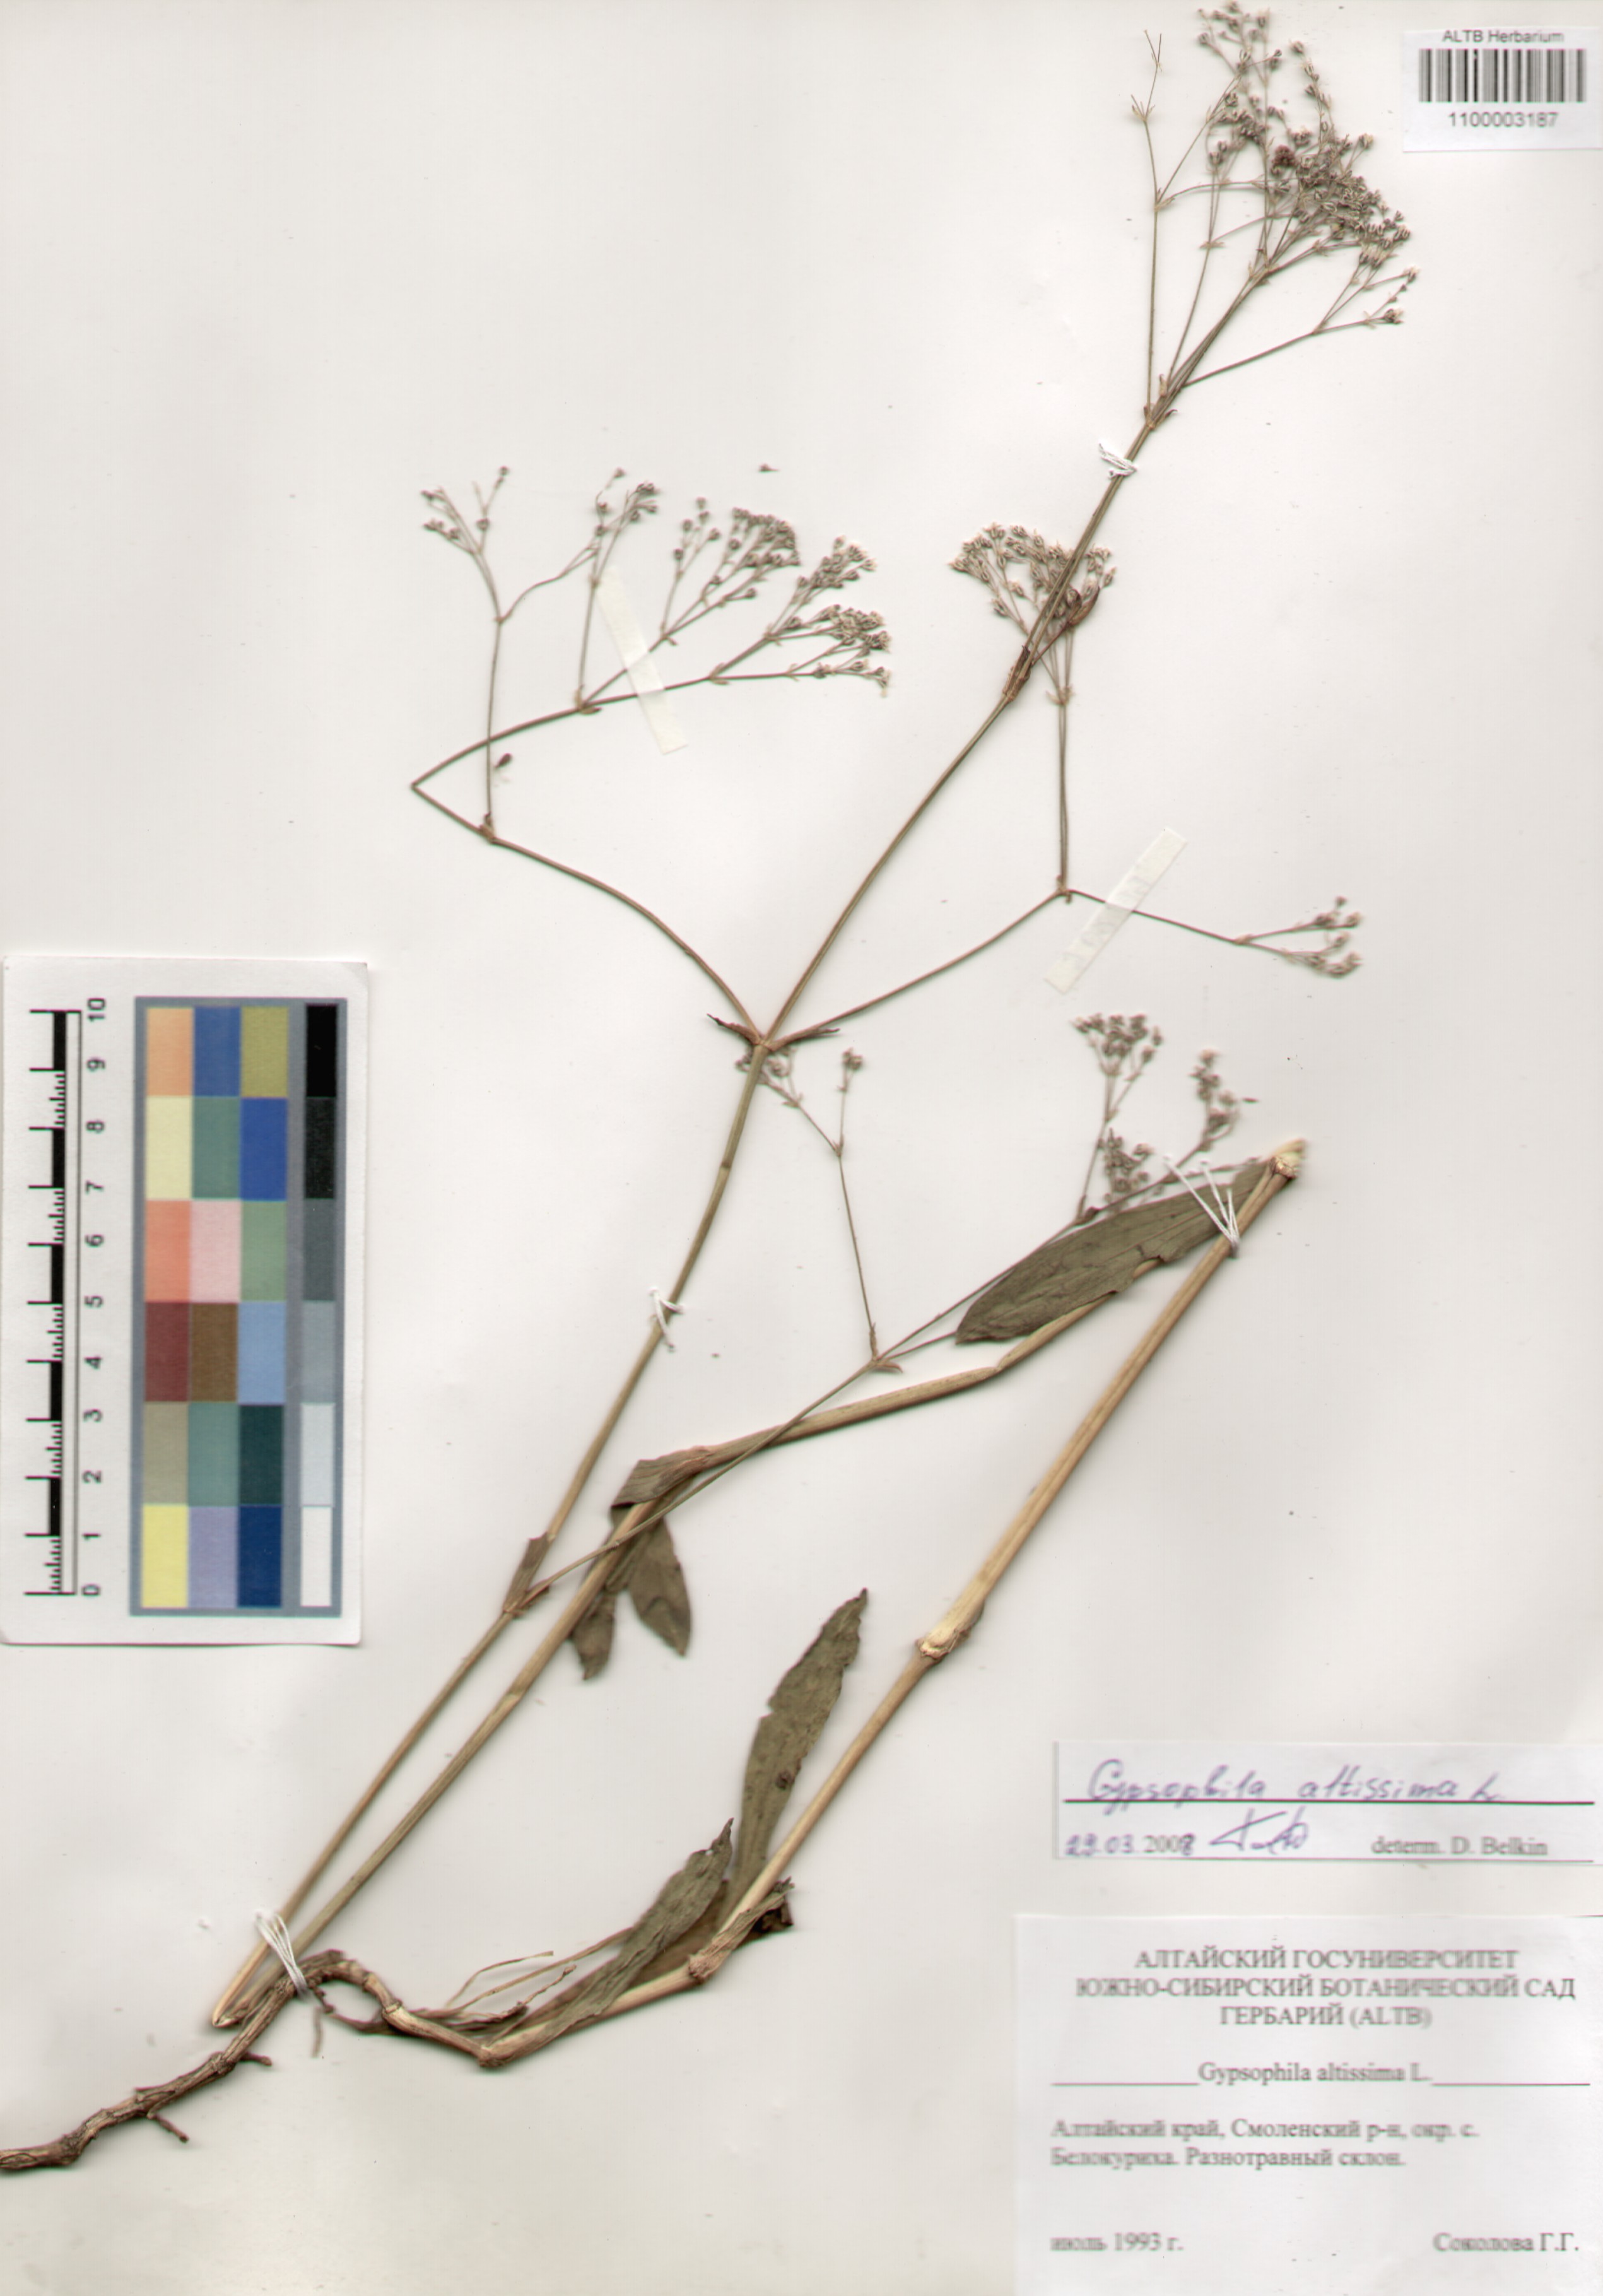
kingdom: Plantae
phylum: Tracheophyta
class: Magnoliopsida
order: Caryophyllales
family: Caryophyllaceae
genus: Gypsophila
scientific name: Gypsophila altissima
